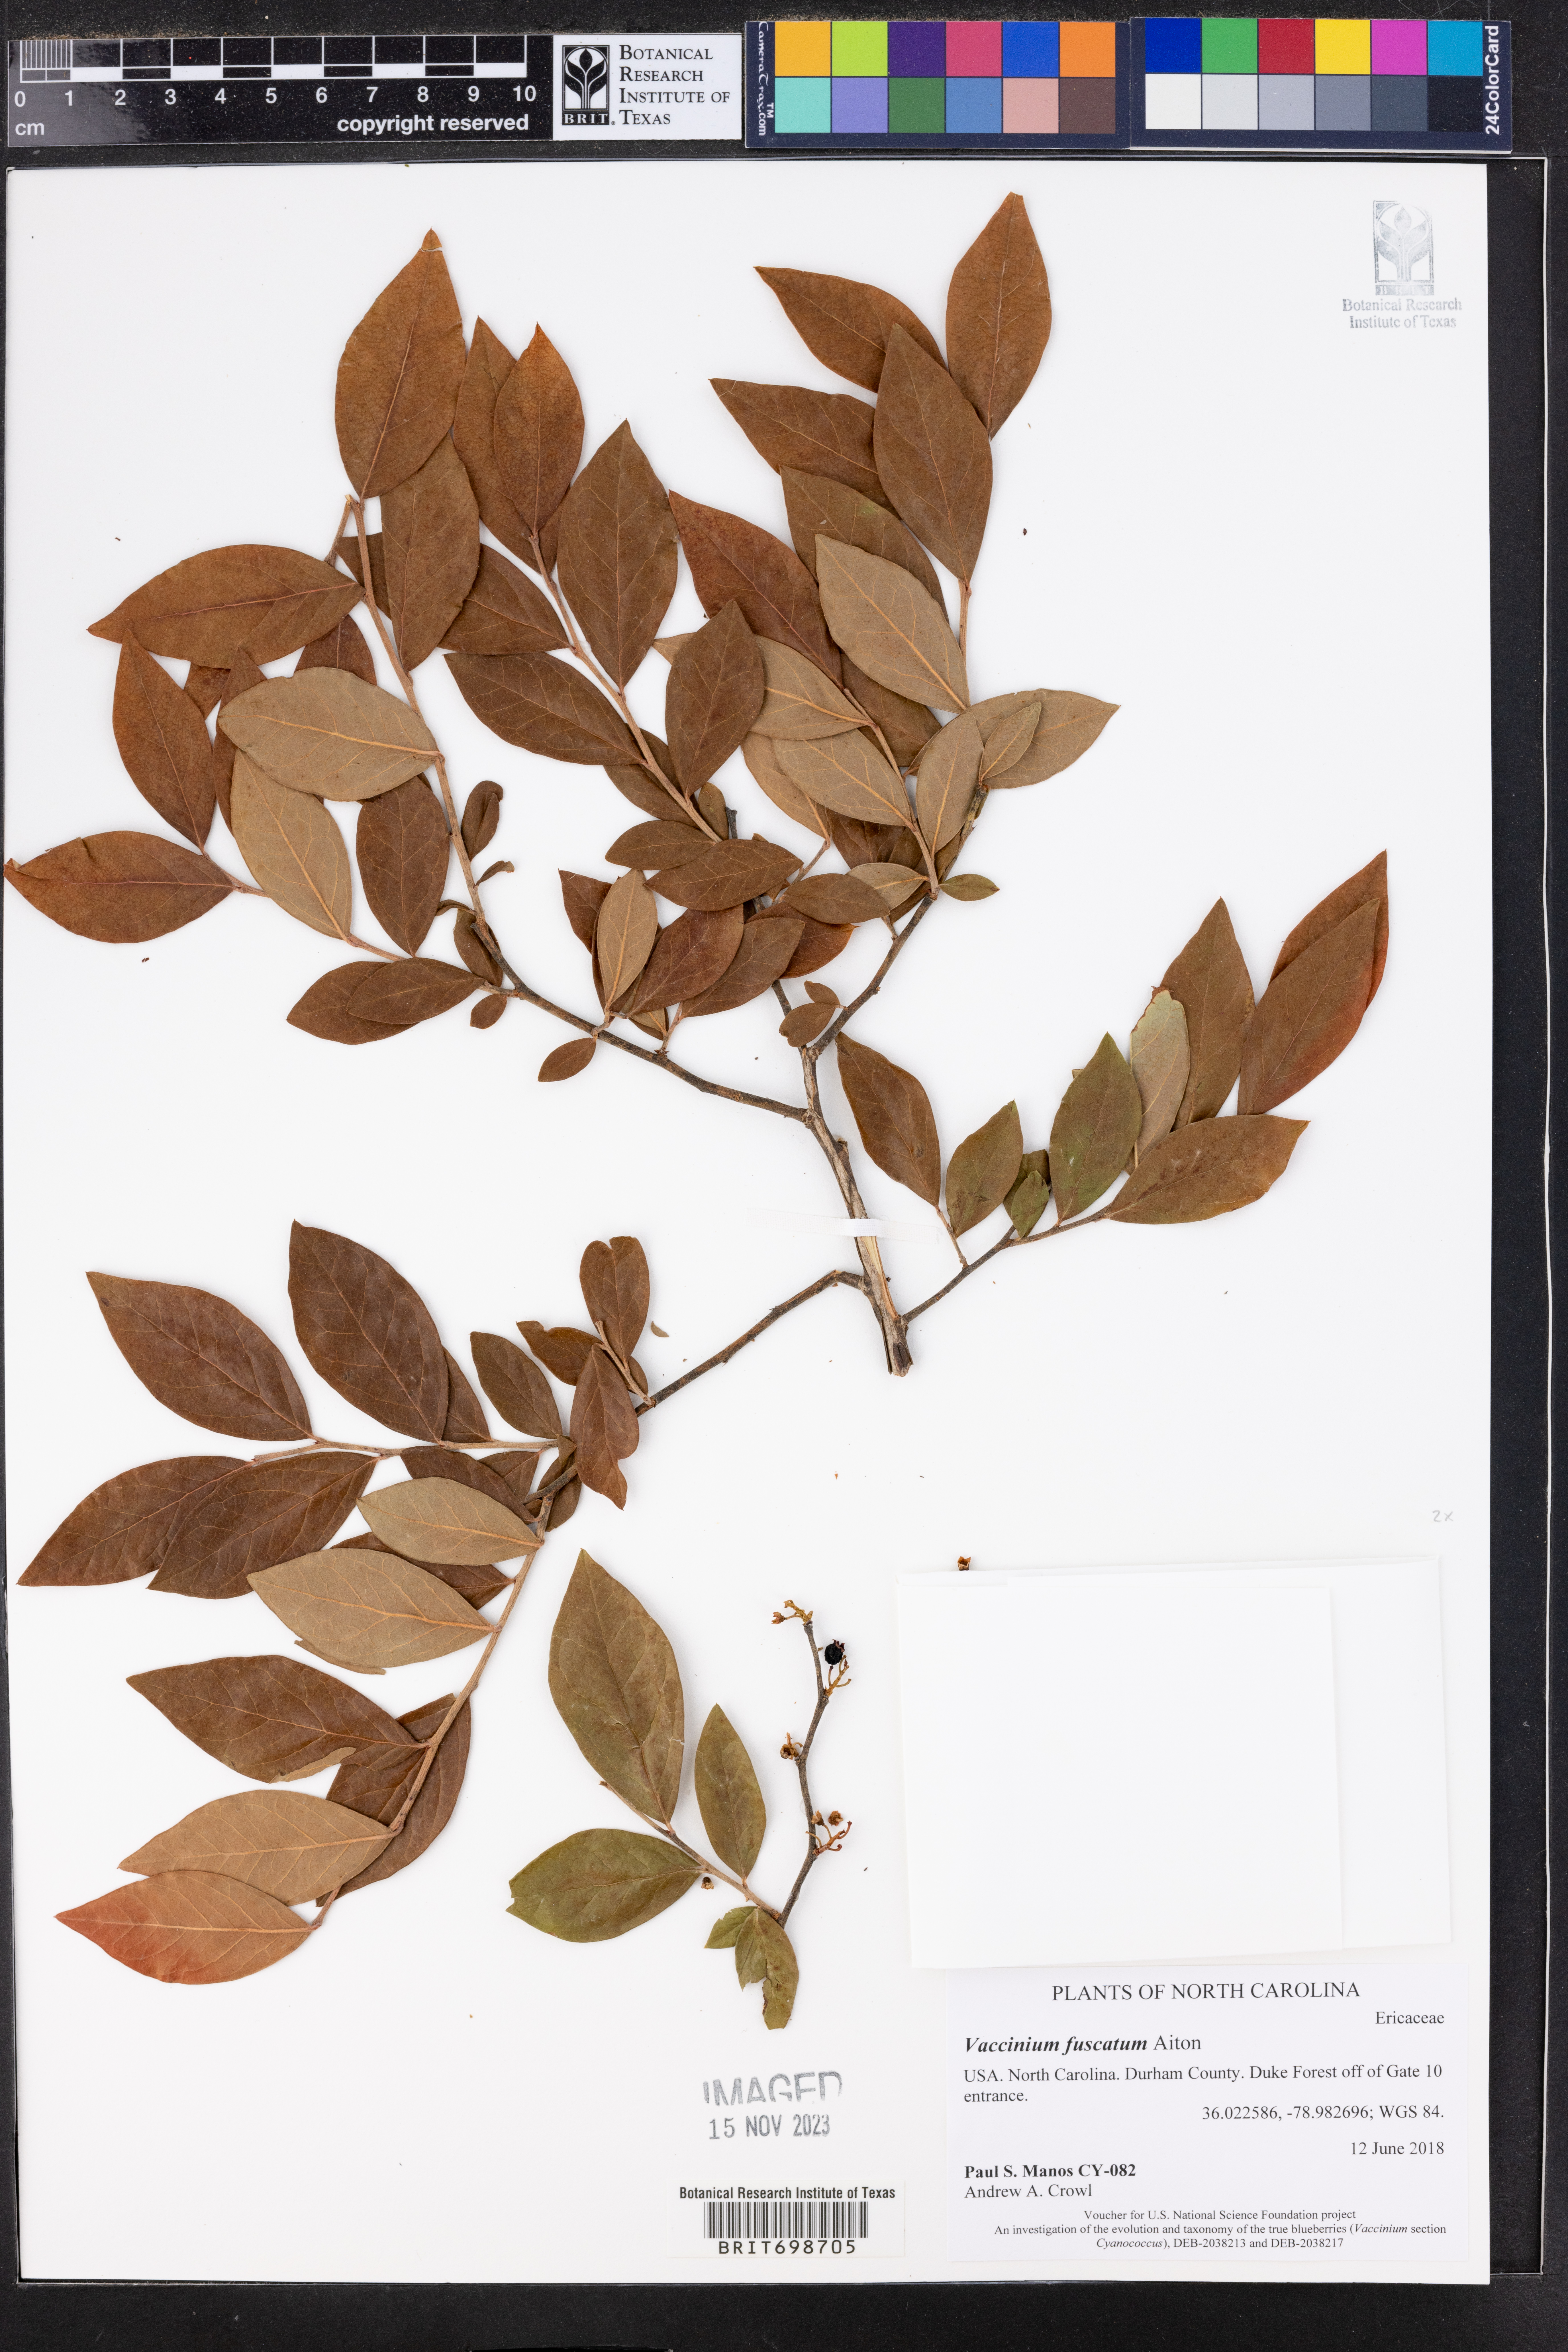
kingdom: Plantae
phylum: Tracheophyta
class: Magnoliopsida
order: Ericales
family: Ericaceae
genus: Vaccinium
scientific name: Vaccinium corymbosum
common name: Blueberry
